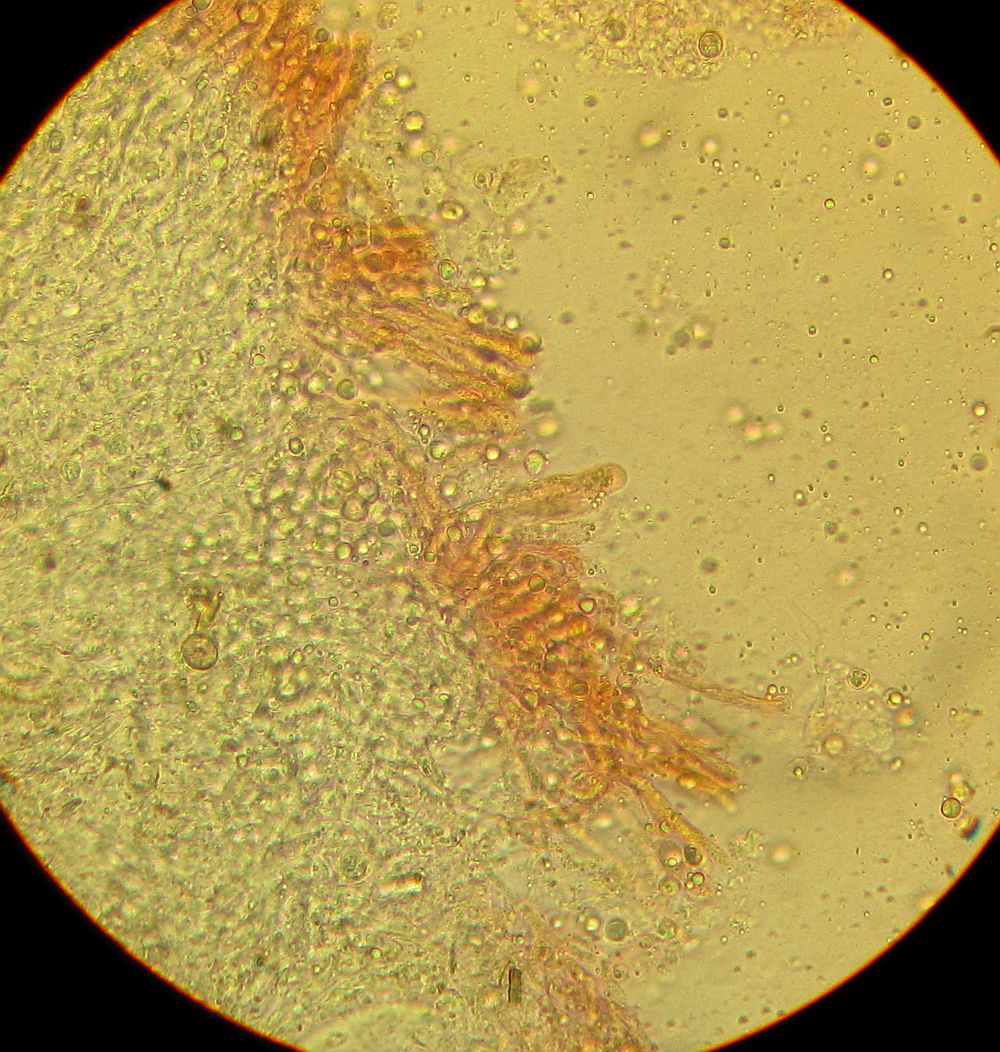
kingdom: Fungi
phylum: Basidiomycota
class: Agaricomycetes
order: Russulales
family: Peniophoraceae
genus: Gloiothele
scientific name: Gloiothele citrina
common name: citronskorpe
